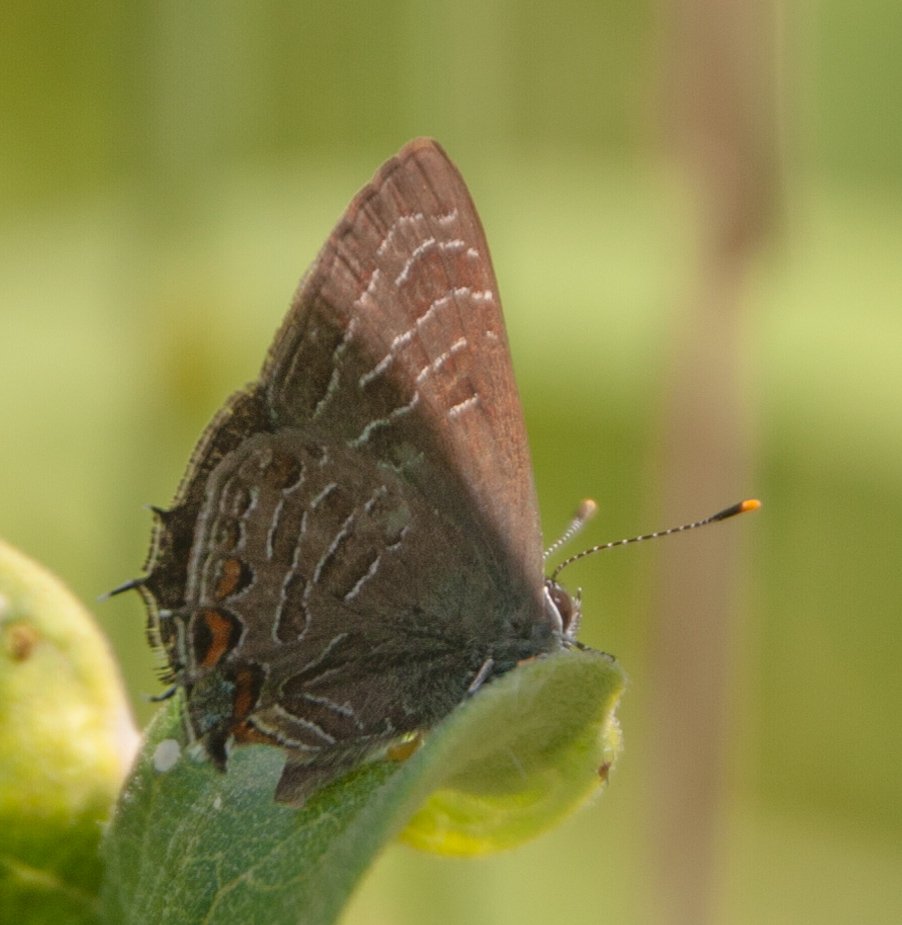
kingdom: Animalia
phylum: Arthropoda
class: Insecta
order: Lepidoptera
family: Lycaenidae
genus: Satyrium
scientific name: Satyrium liparops
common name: Striped Hairstreak
